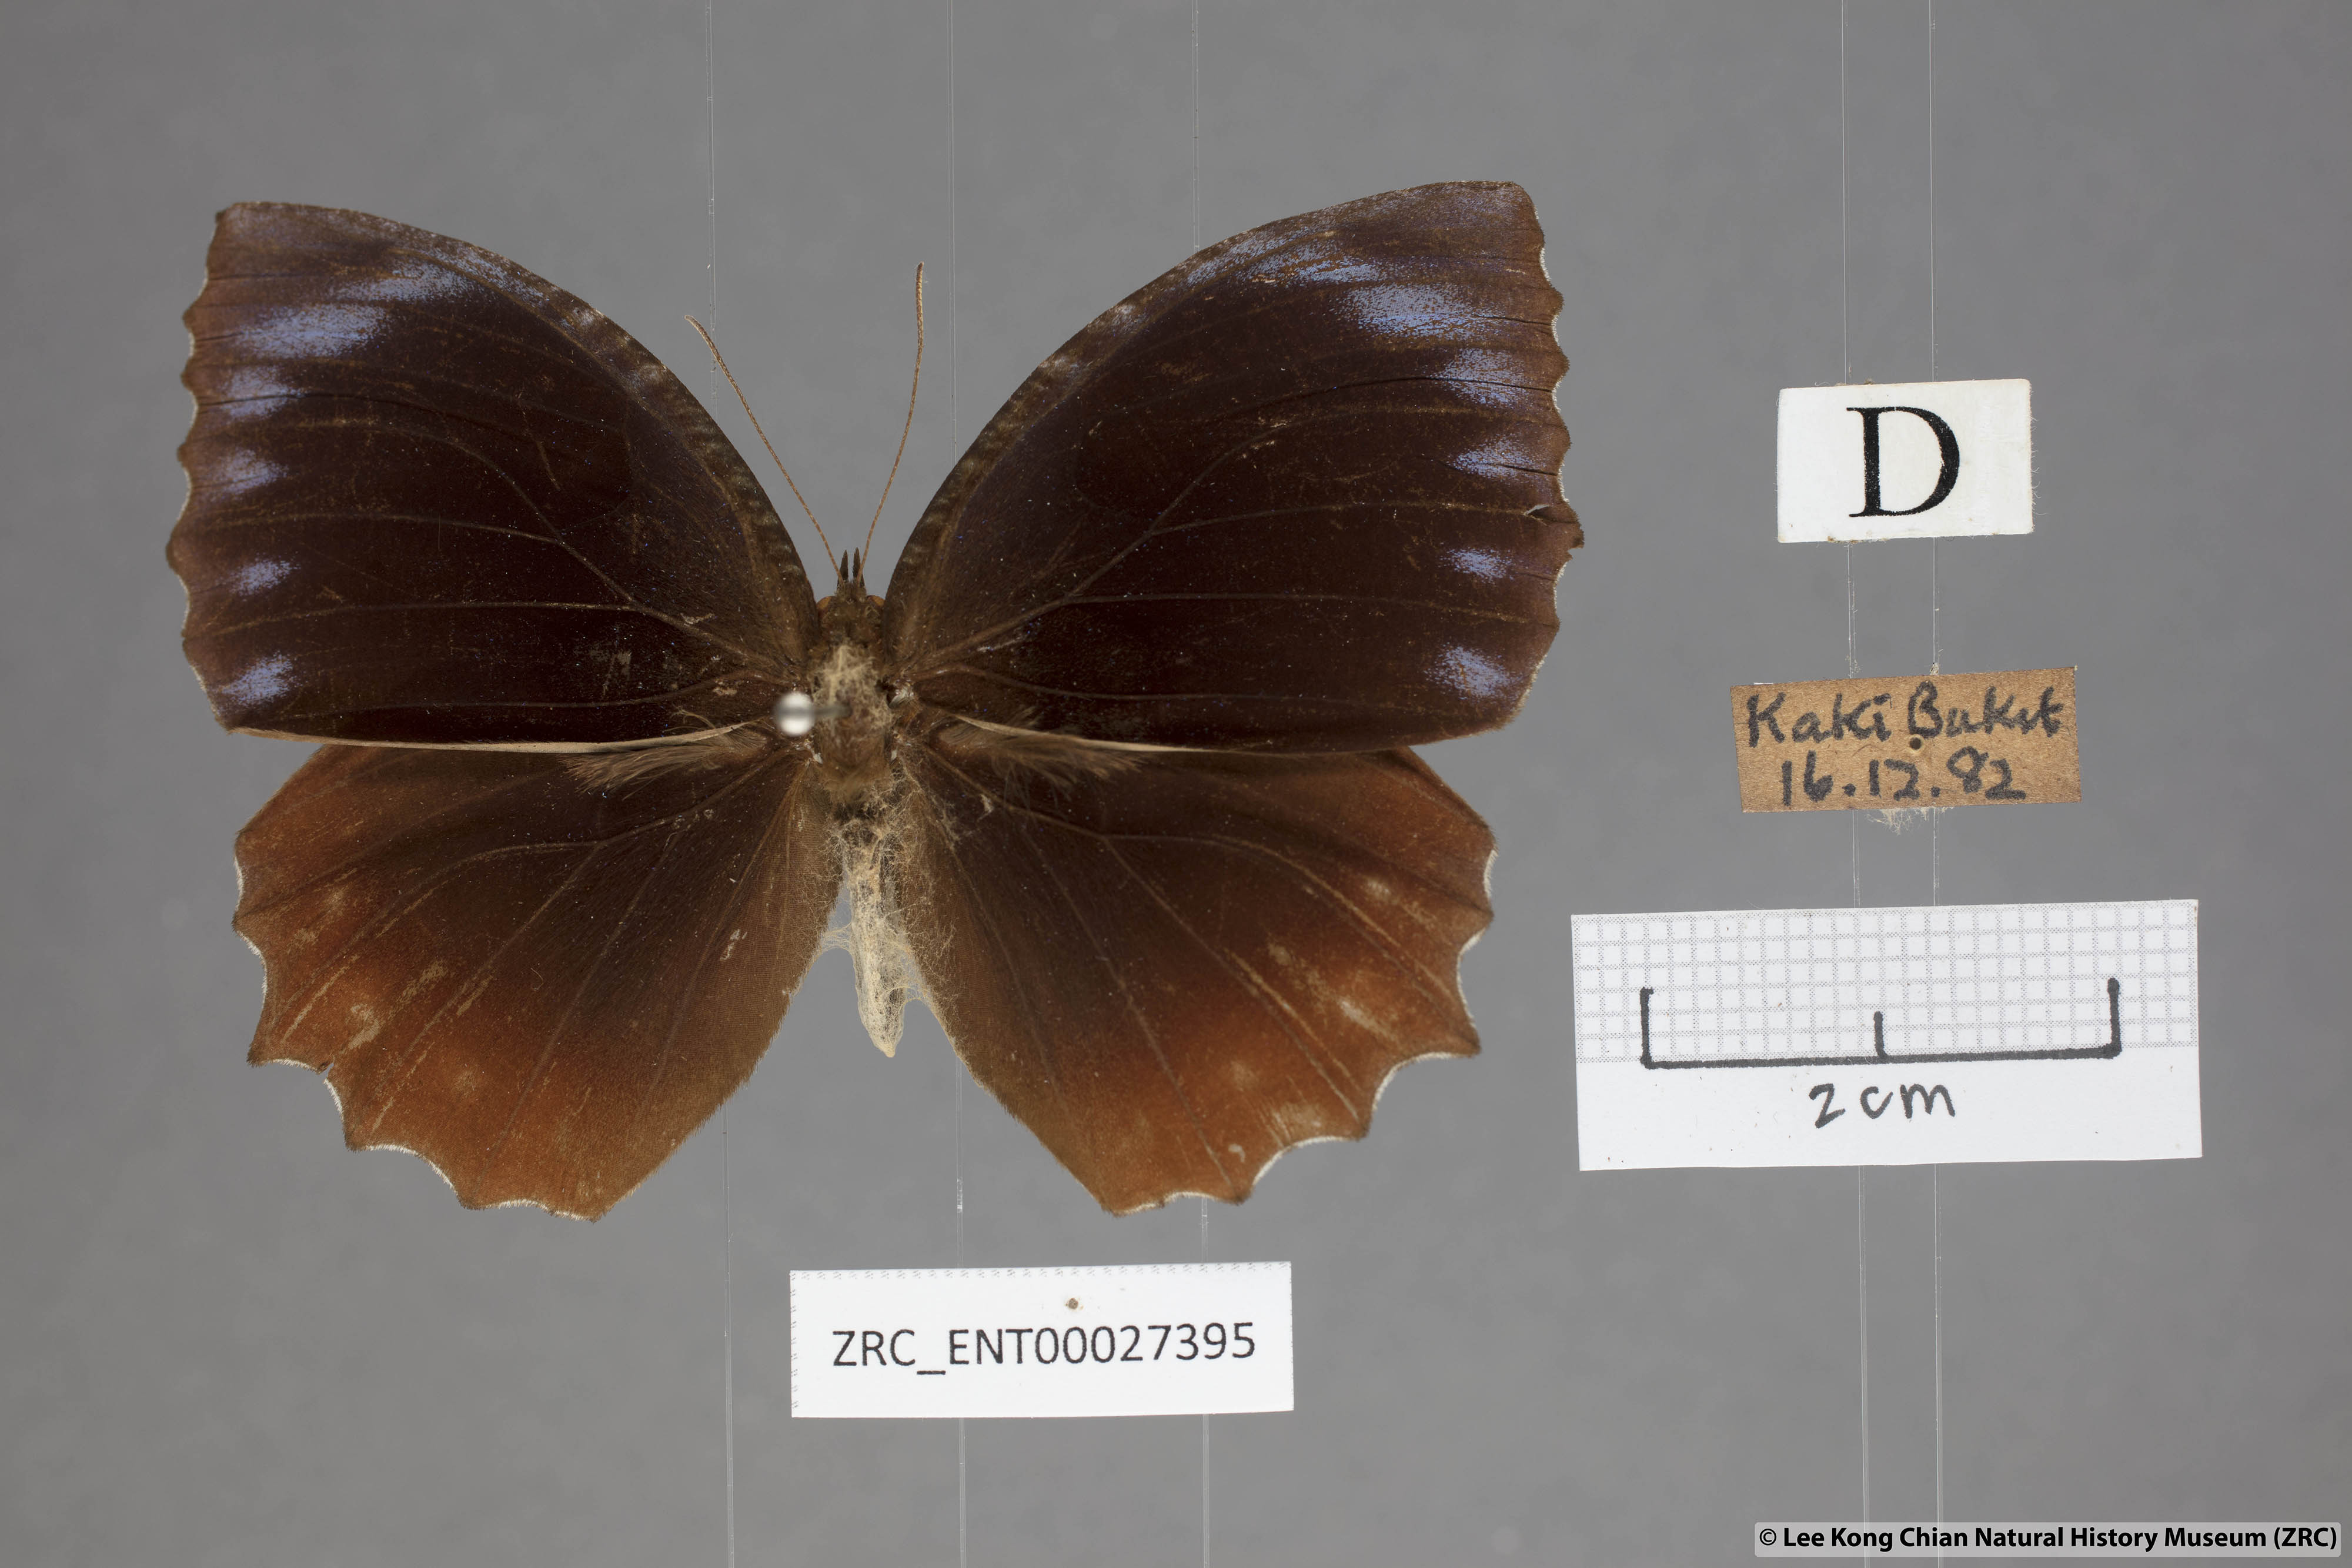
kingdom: Animalia
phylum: Arthropoda
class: Insecta
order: Lepidoptera
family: Nymphalidae
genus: Elymnias
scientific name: Elymnias hypermnestra
